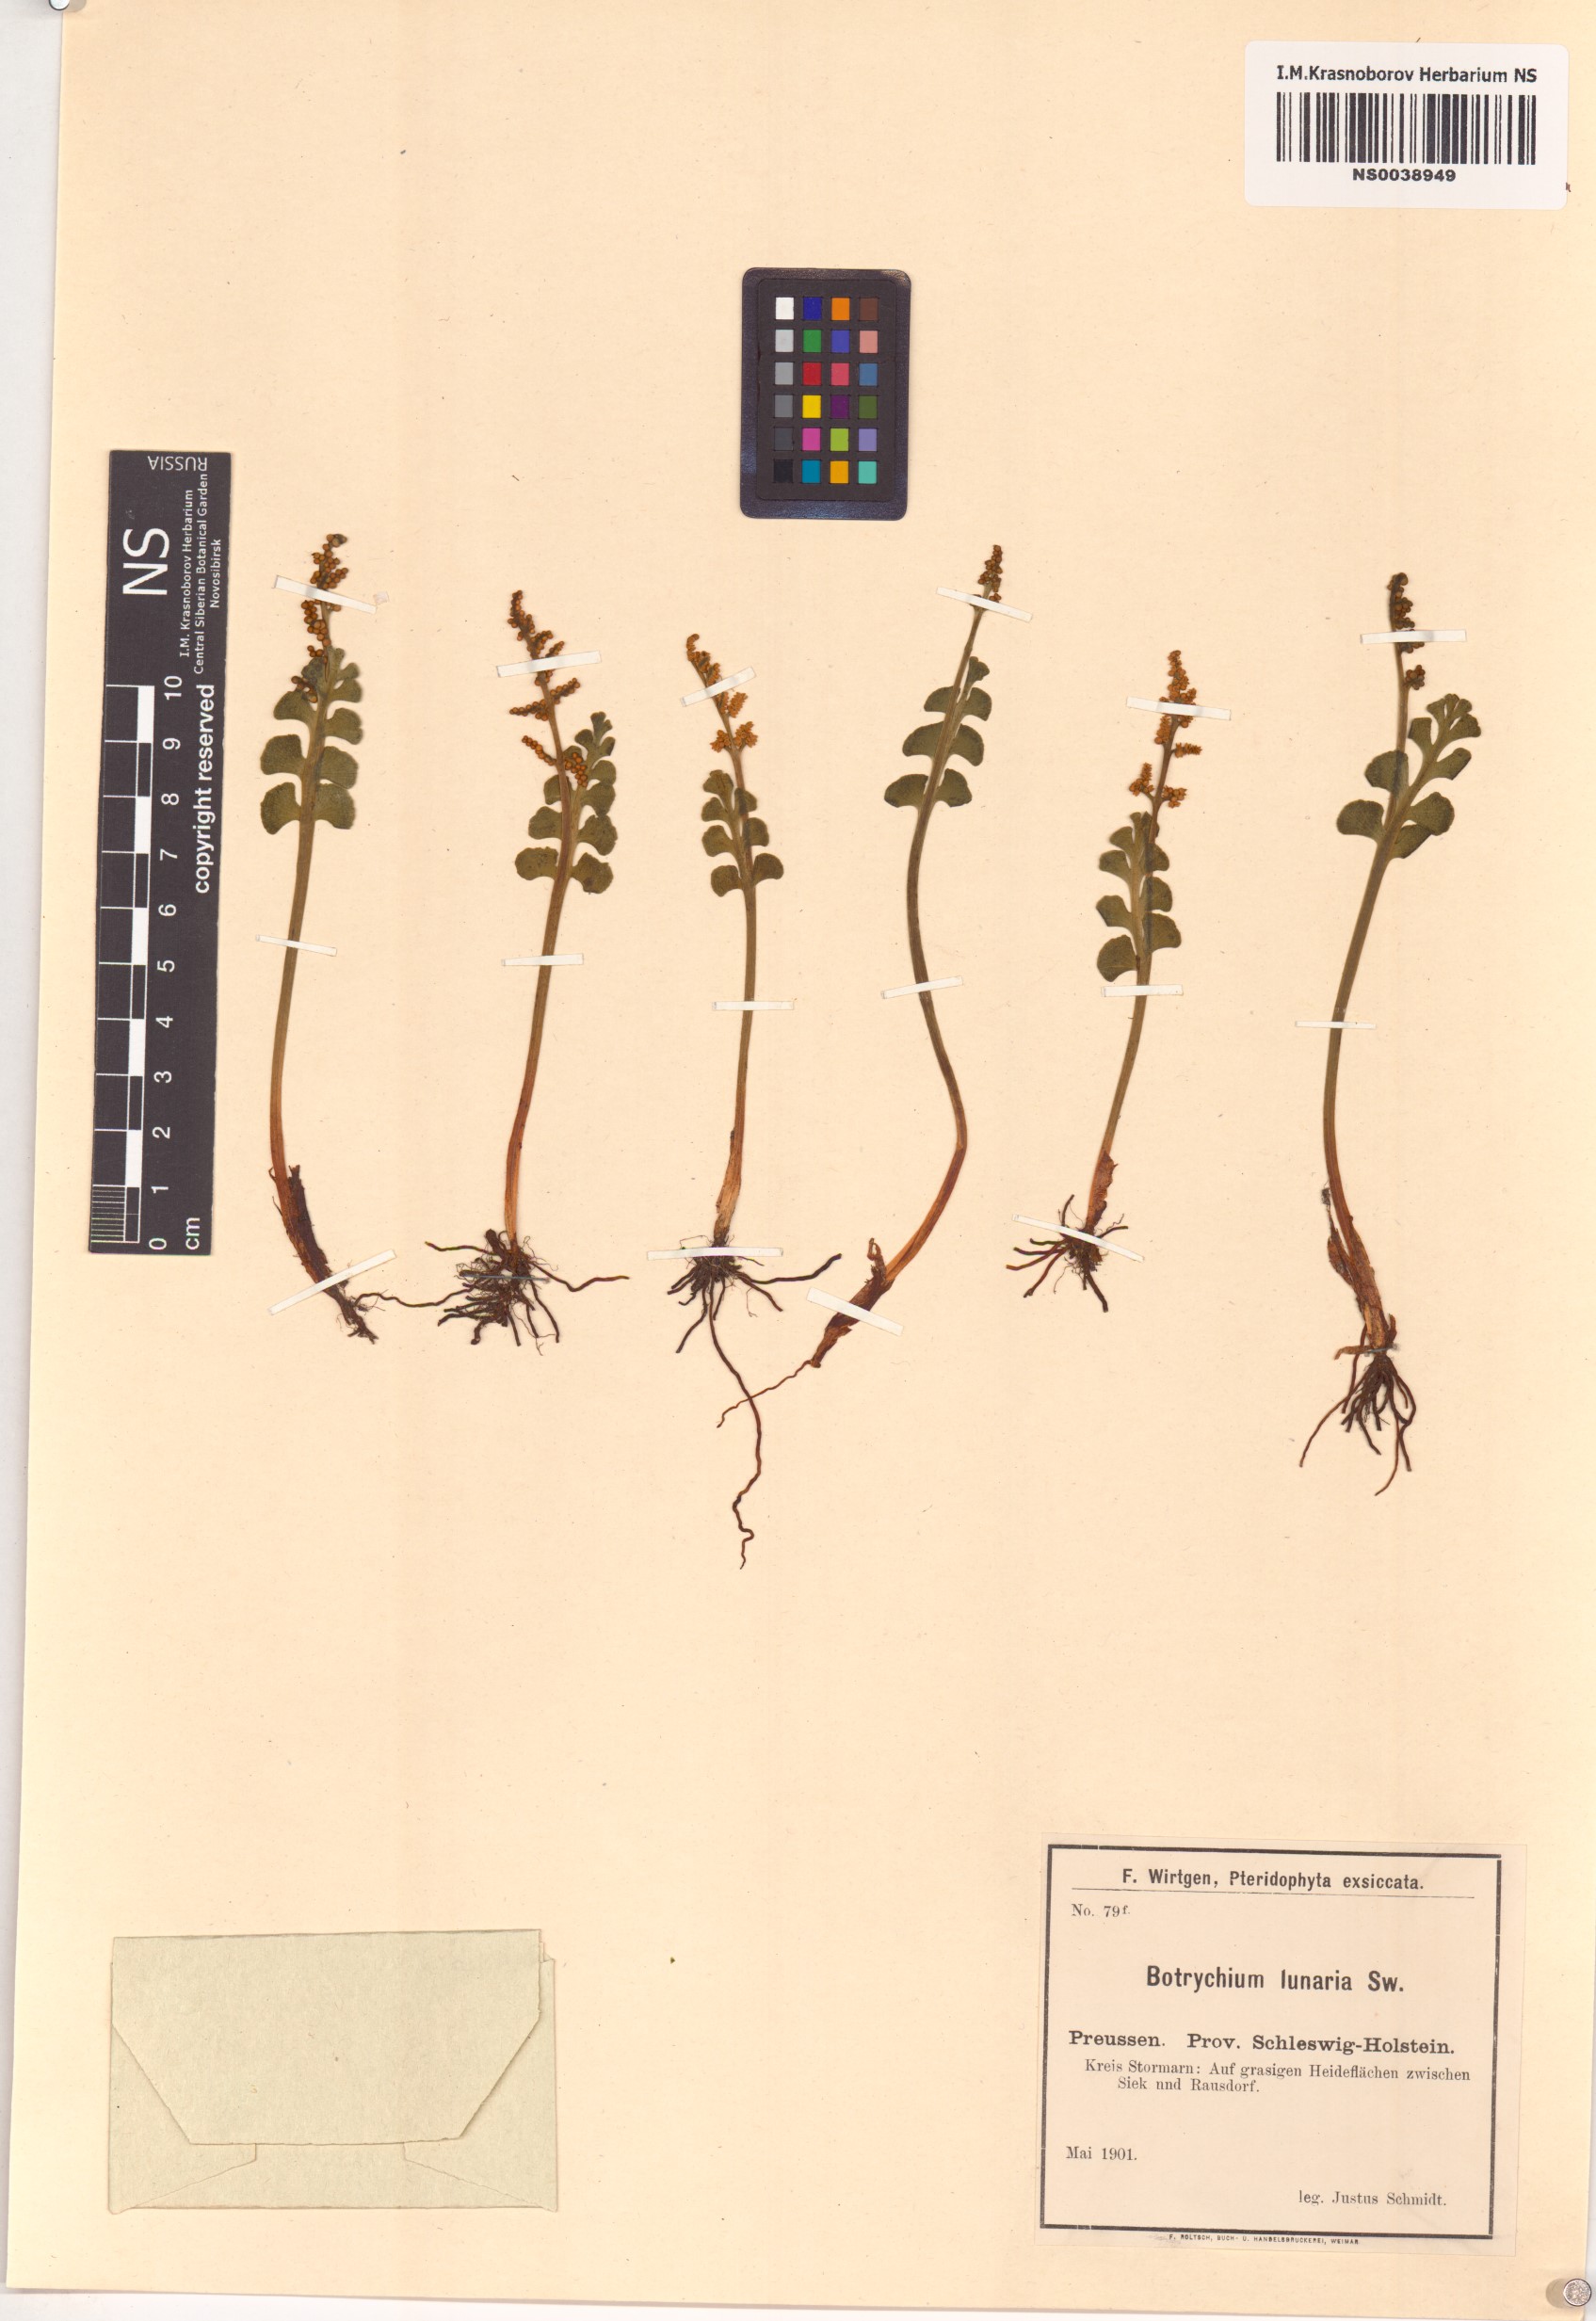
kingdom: Plantae
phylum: Tracheophyta
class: Polypodiopsida
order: Ophioglossales
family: Ophioglossaceae
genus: Botrychium
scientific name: Botrychium lunaria
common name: Moonwort
